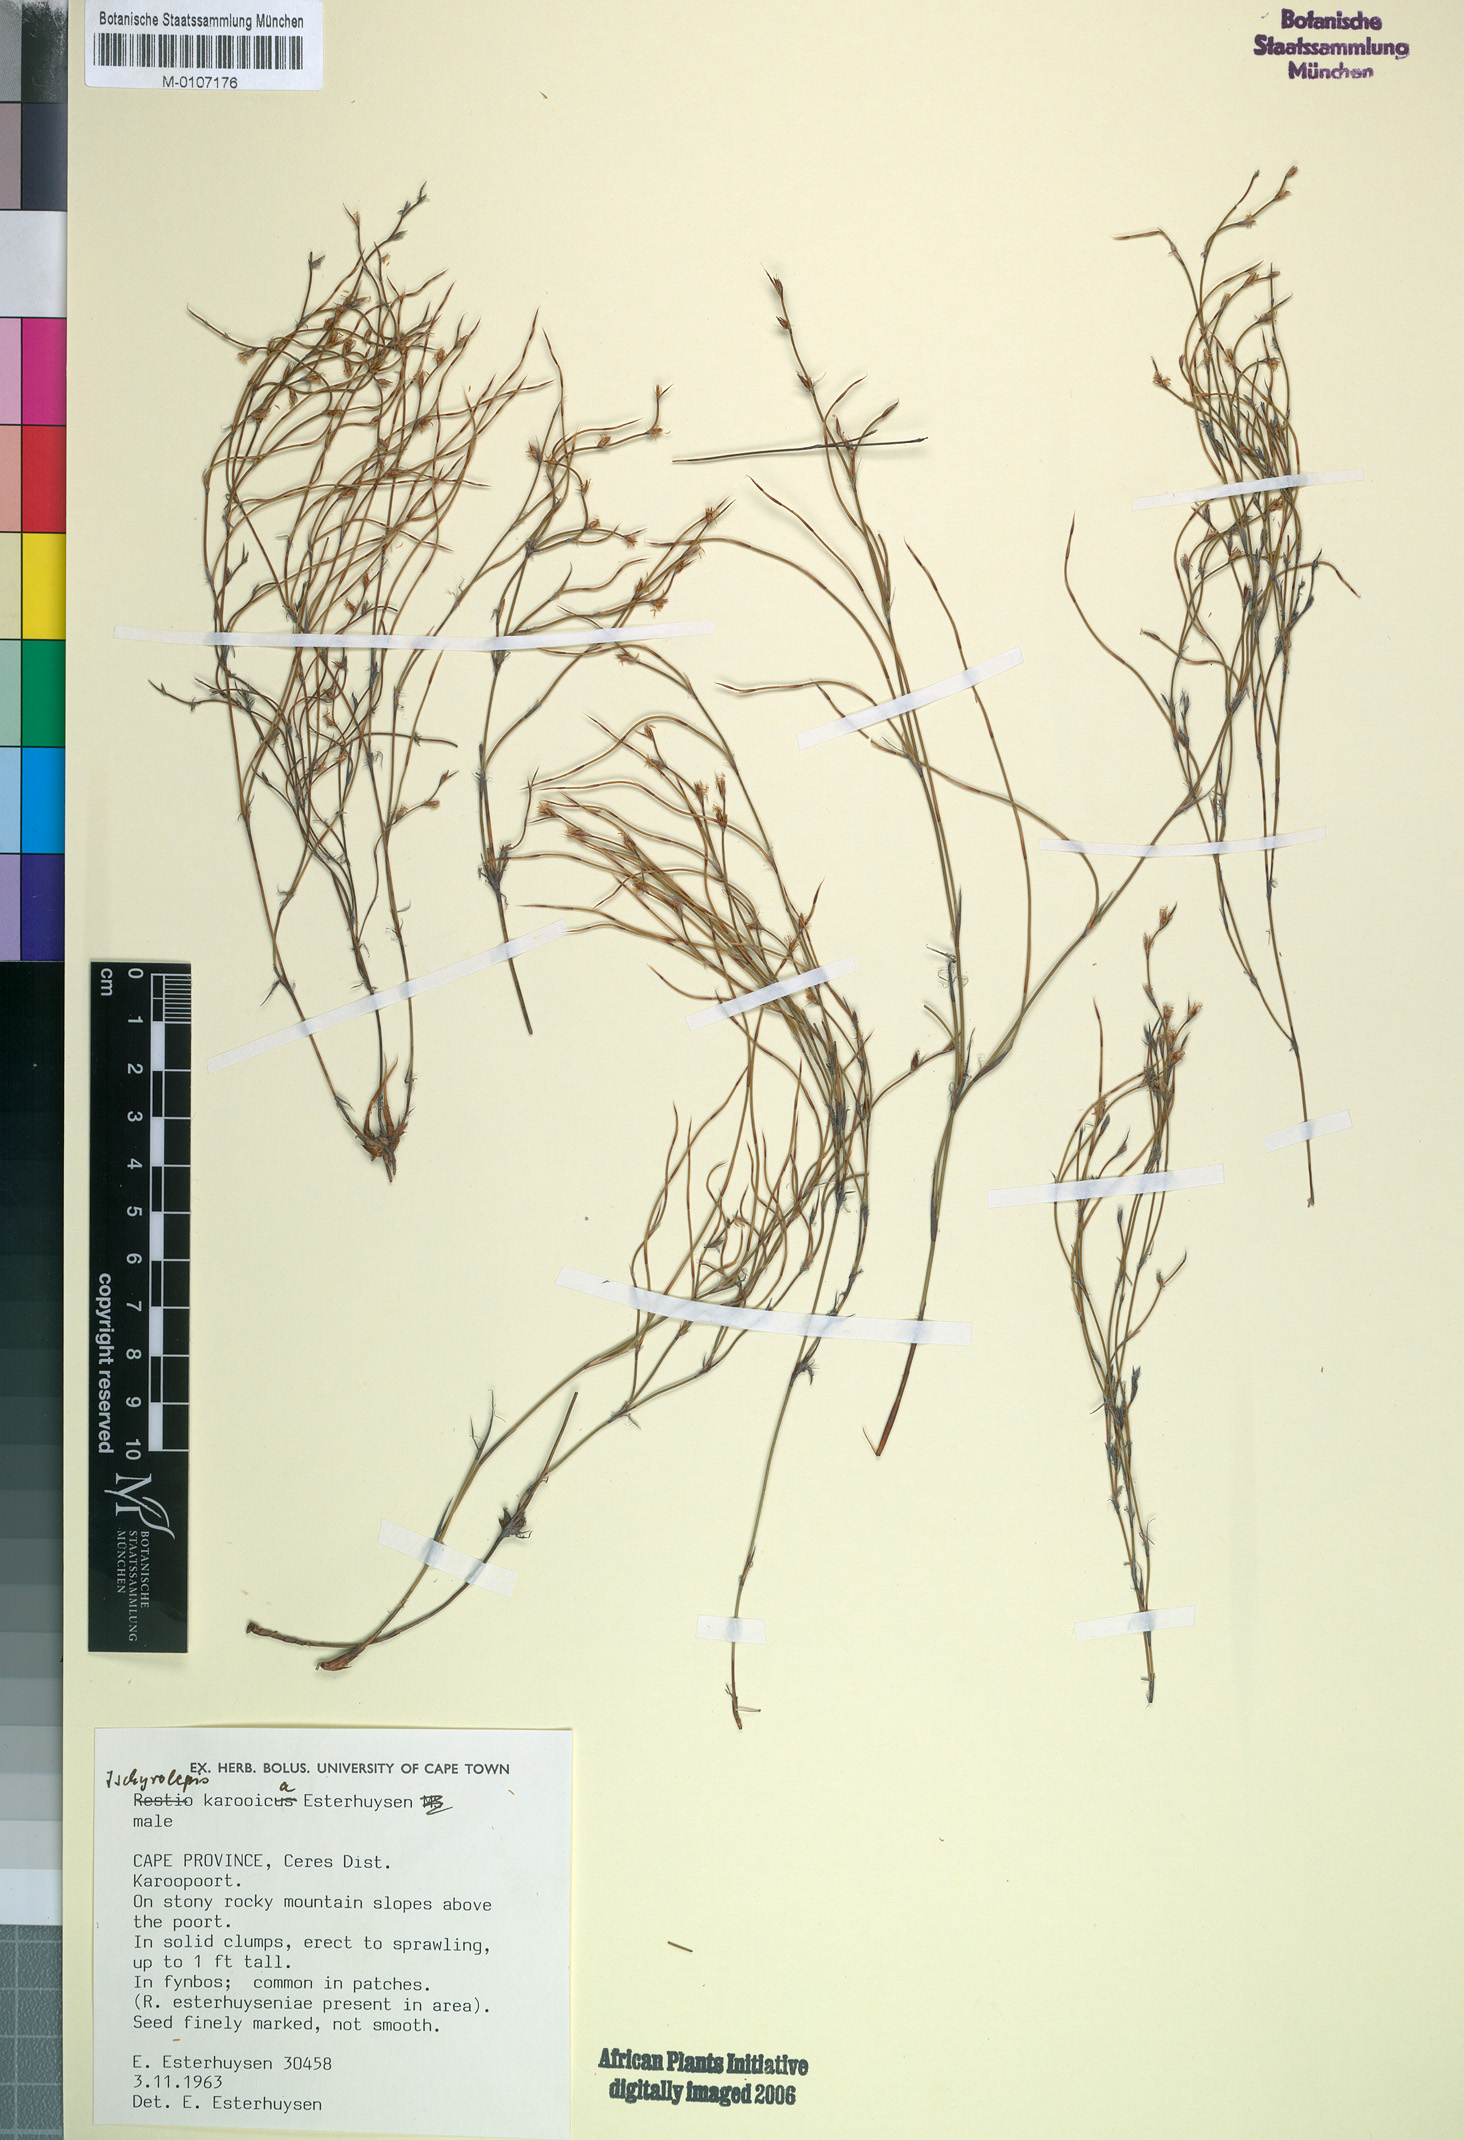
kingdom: Plantae
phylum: Tracheophyta
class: Liliopsida
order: Poales
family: Restionaceae
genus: Restio
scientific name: Restio karooicus
